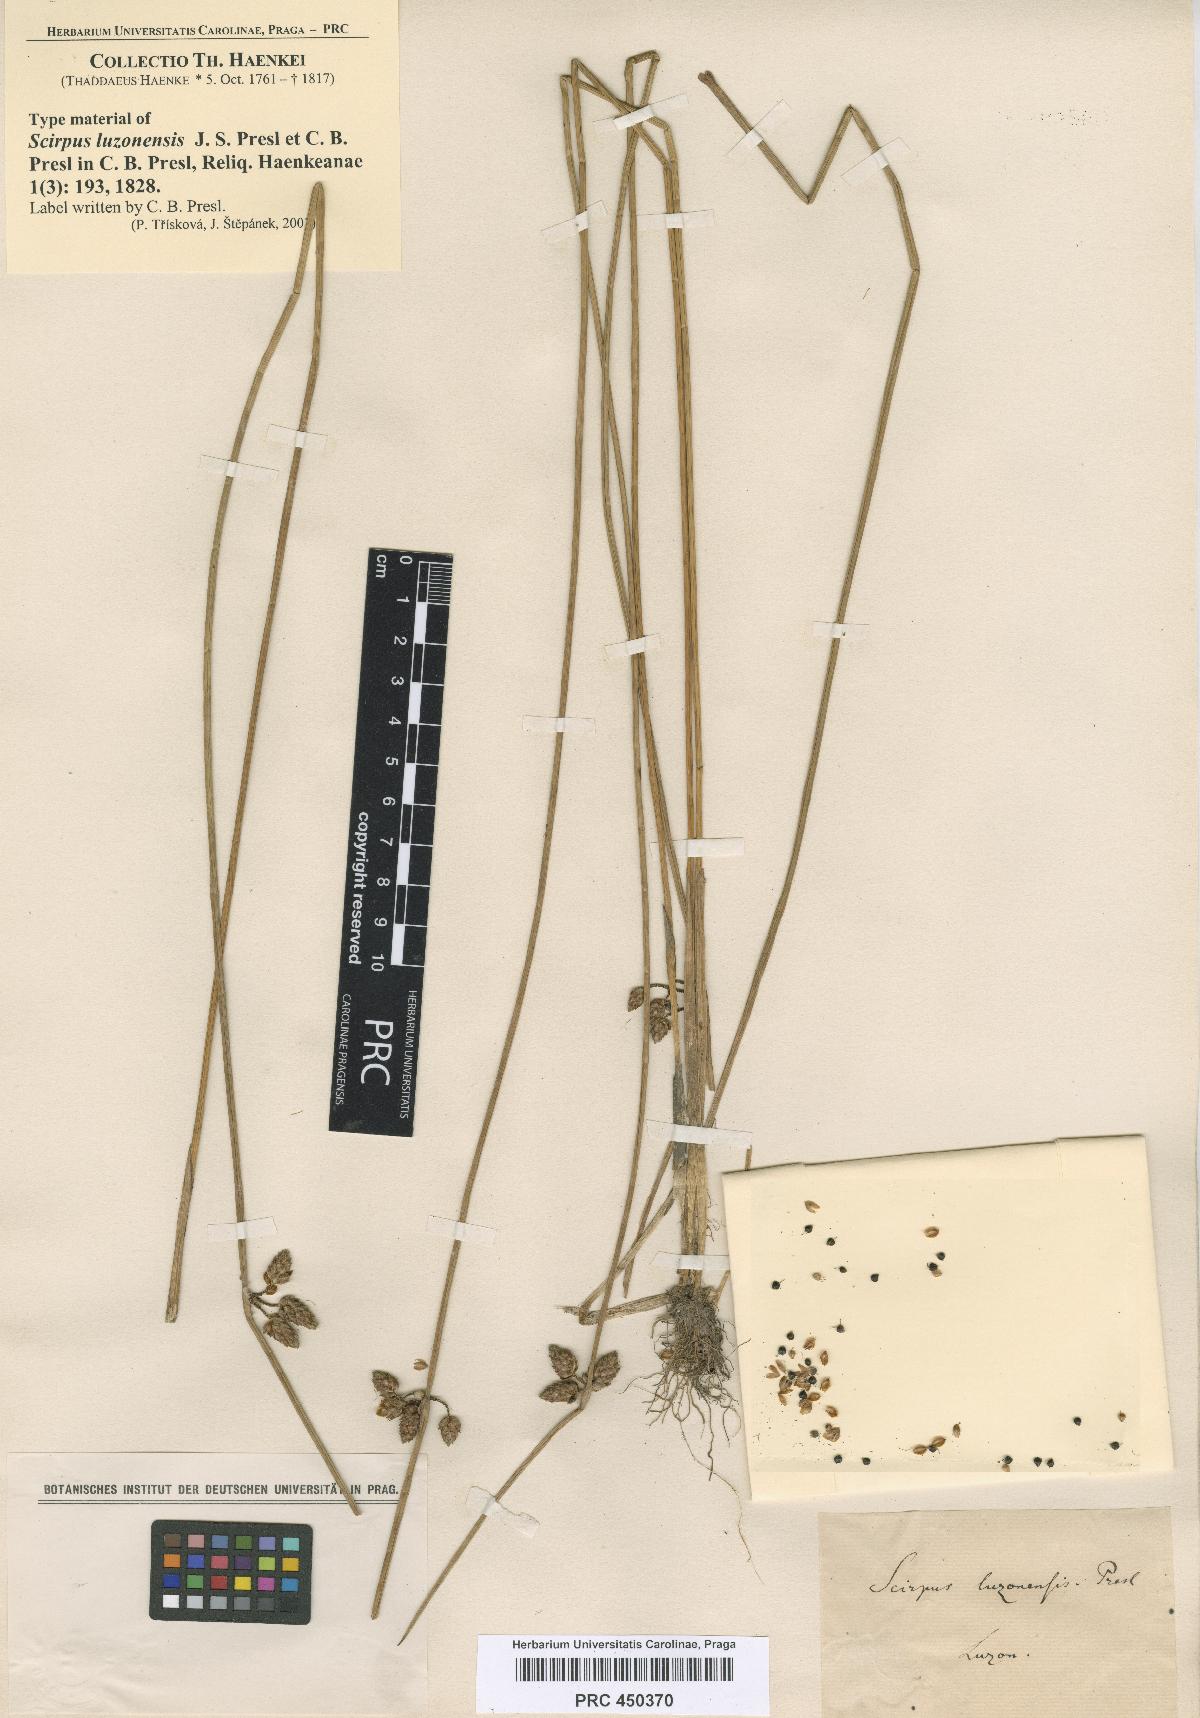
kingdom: Plantae
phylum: Tracheophyta
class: Liliopsida
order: Poales
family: Cyperaceae
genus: Schoenoplectiella
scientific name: Schoenoplectiella juncoides
